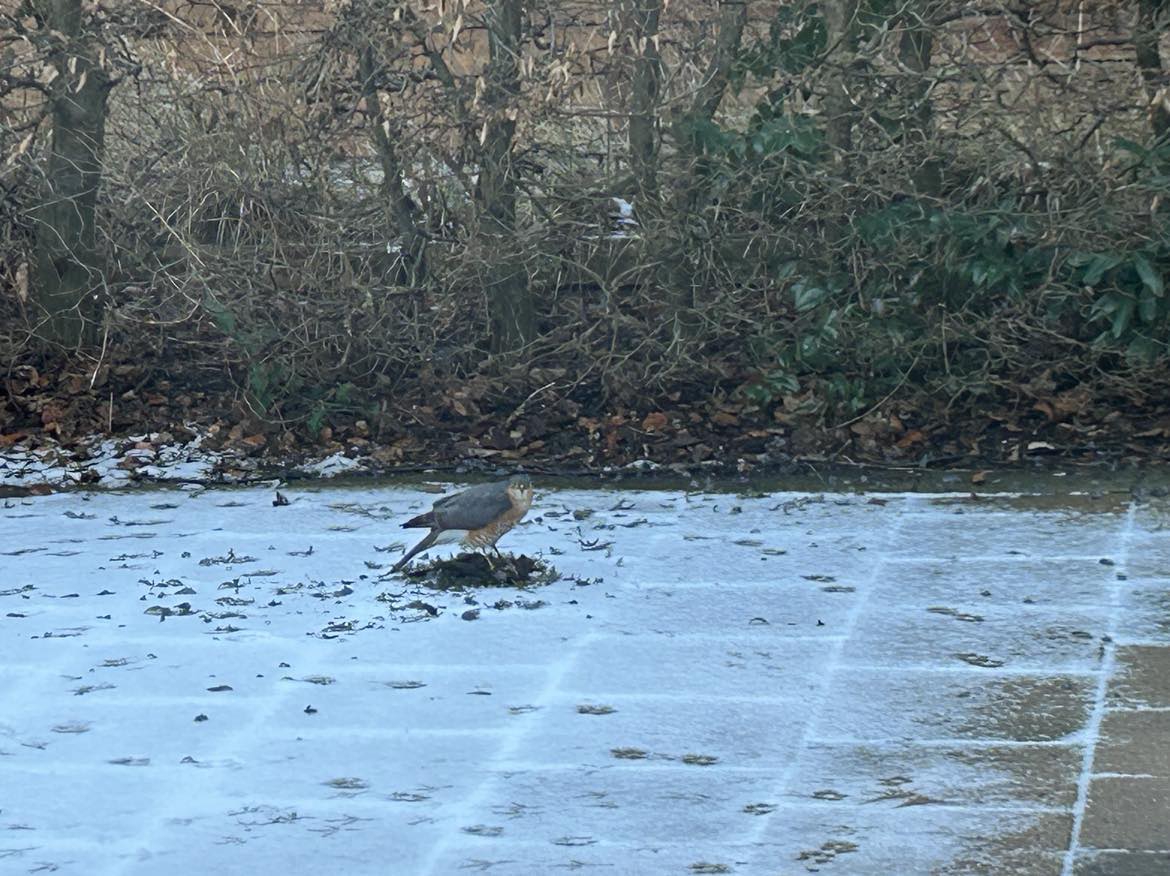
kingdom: Animalia
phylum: Chordata
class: Aves
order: Accipitriformes
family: Accipitridae
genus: Accipiter
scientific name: Accipiter nisus
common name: Spurvehøg
